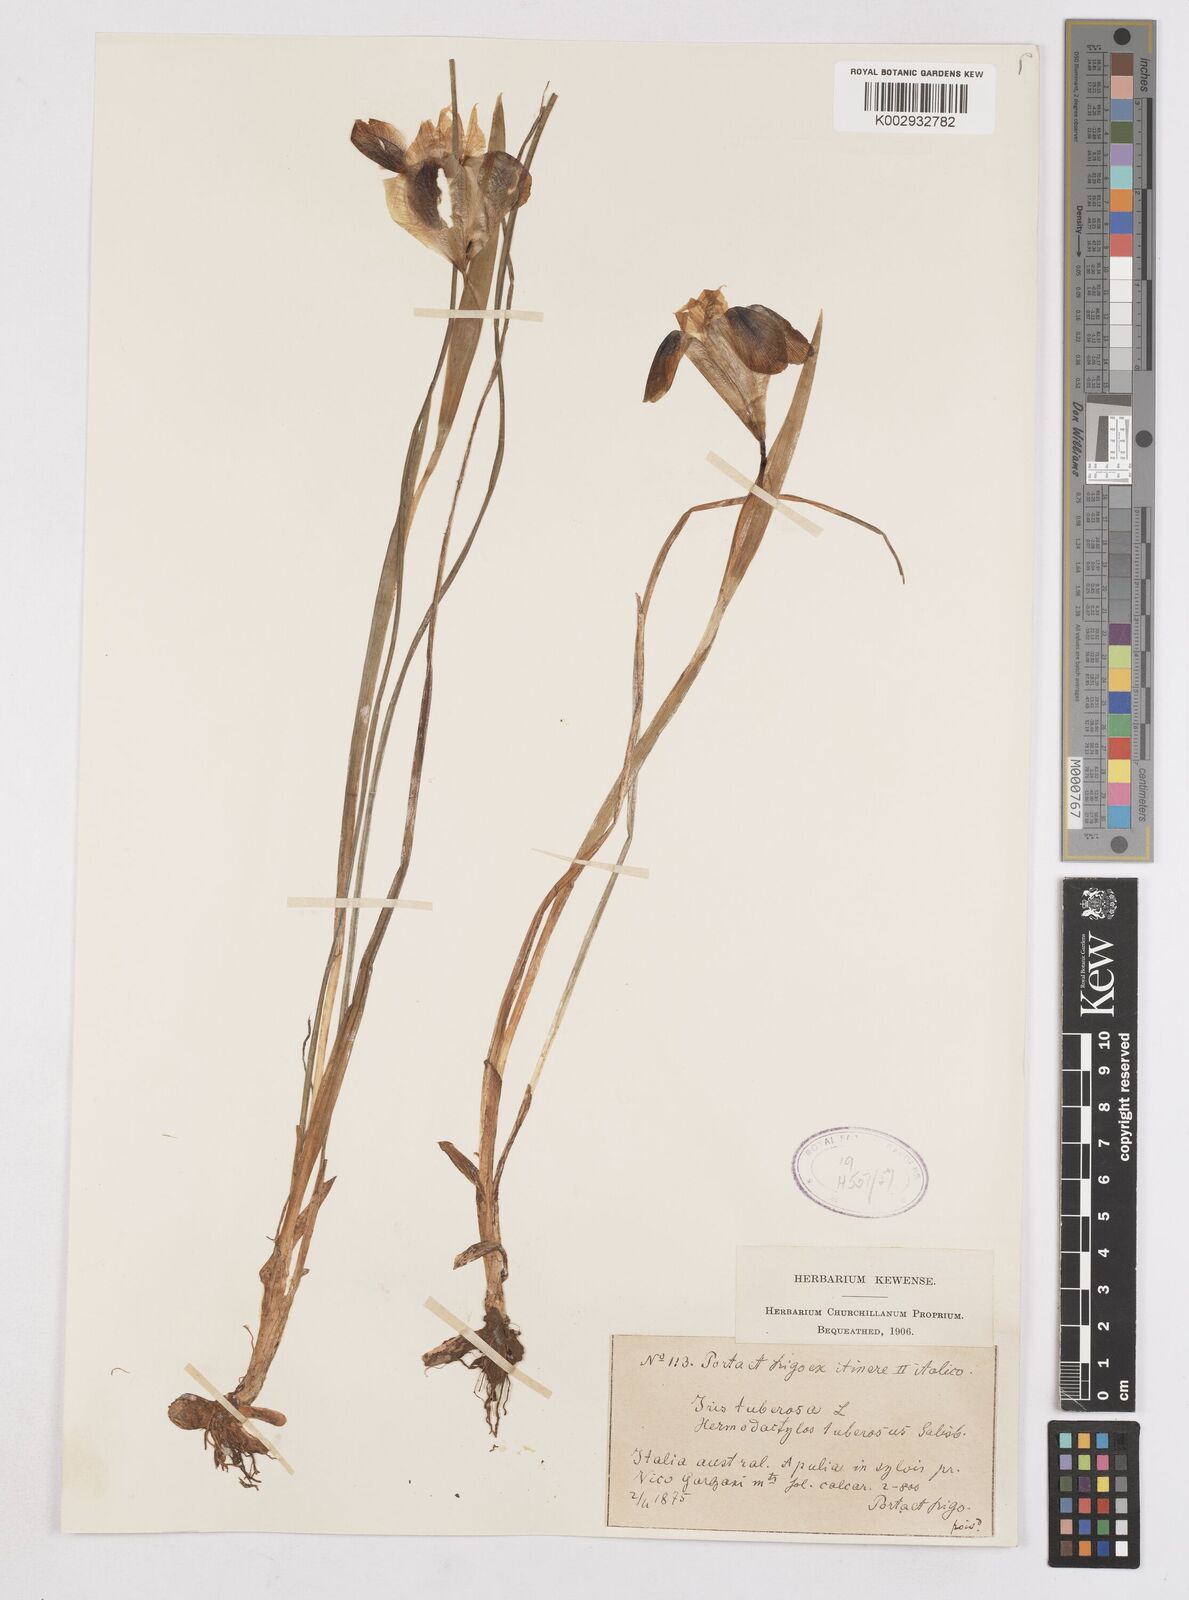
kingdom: Plantae
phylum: Tracheophyta
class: Liliopsida
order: Asparagales
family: Iridaceae
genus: Iris
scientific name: Iris tuberosa
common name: Snake's-head iris
